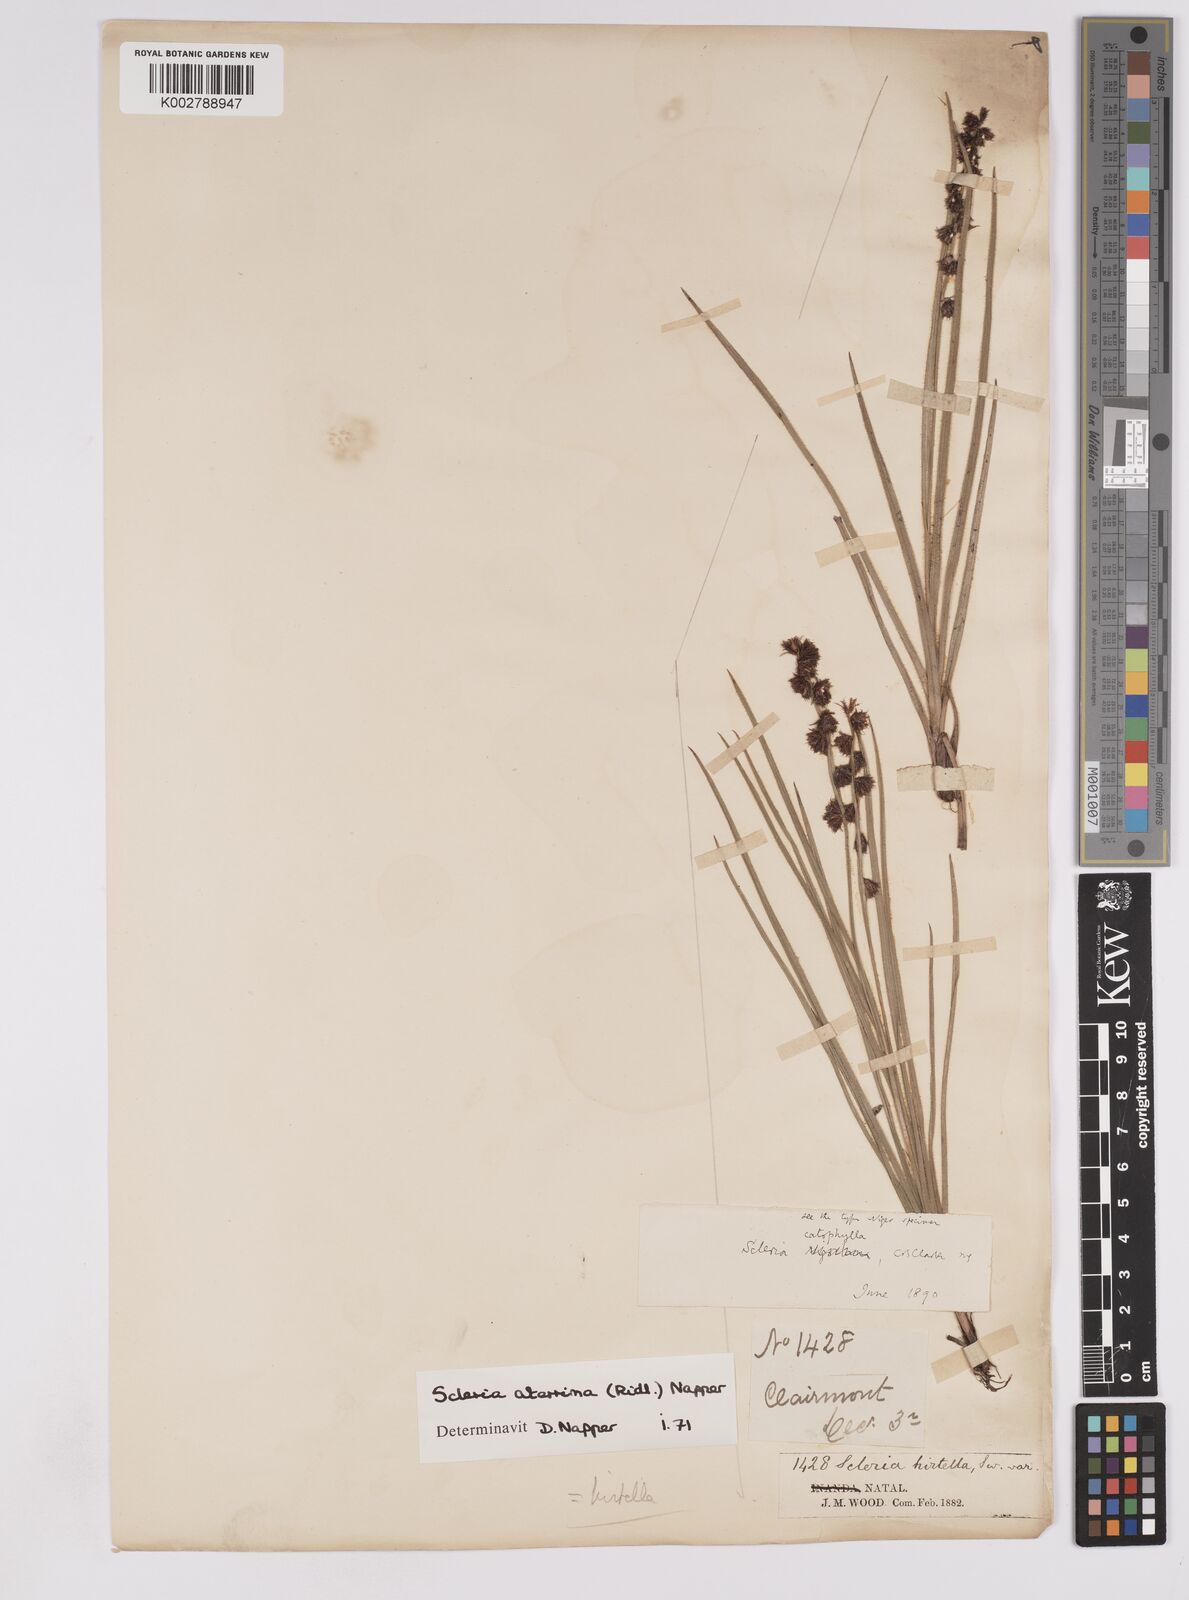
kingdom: Plantae
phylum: Tracheophyta
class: Liliopsida
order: Poales
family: Cyperaceae
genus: Scleria
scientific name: Scleria catophylla
